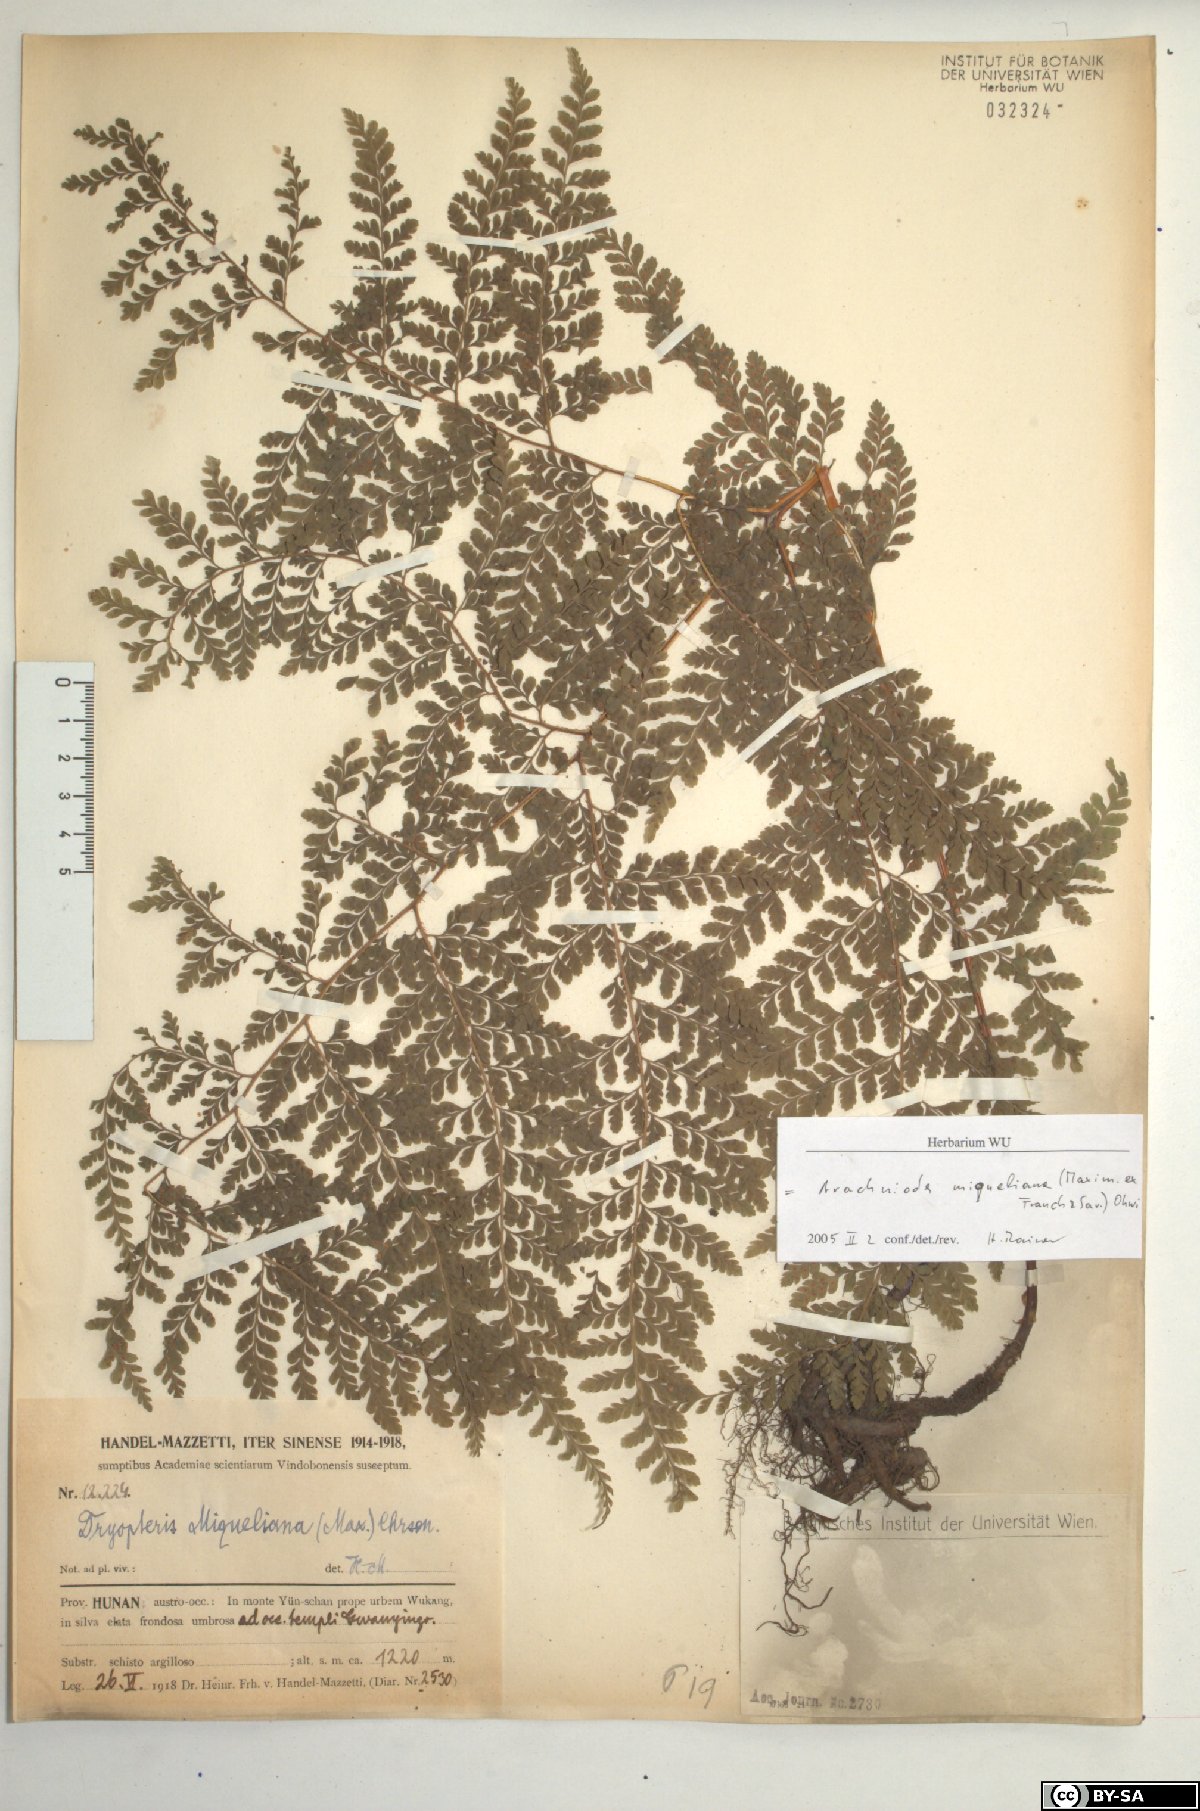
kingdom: Plantae
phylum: Tracheophyta
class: Polypodiopsida
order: Polypodiales
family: Dryopteridaceae
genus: Arachniodes
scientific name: Arachniodes miqueliana
